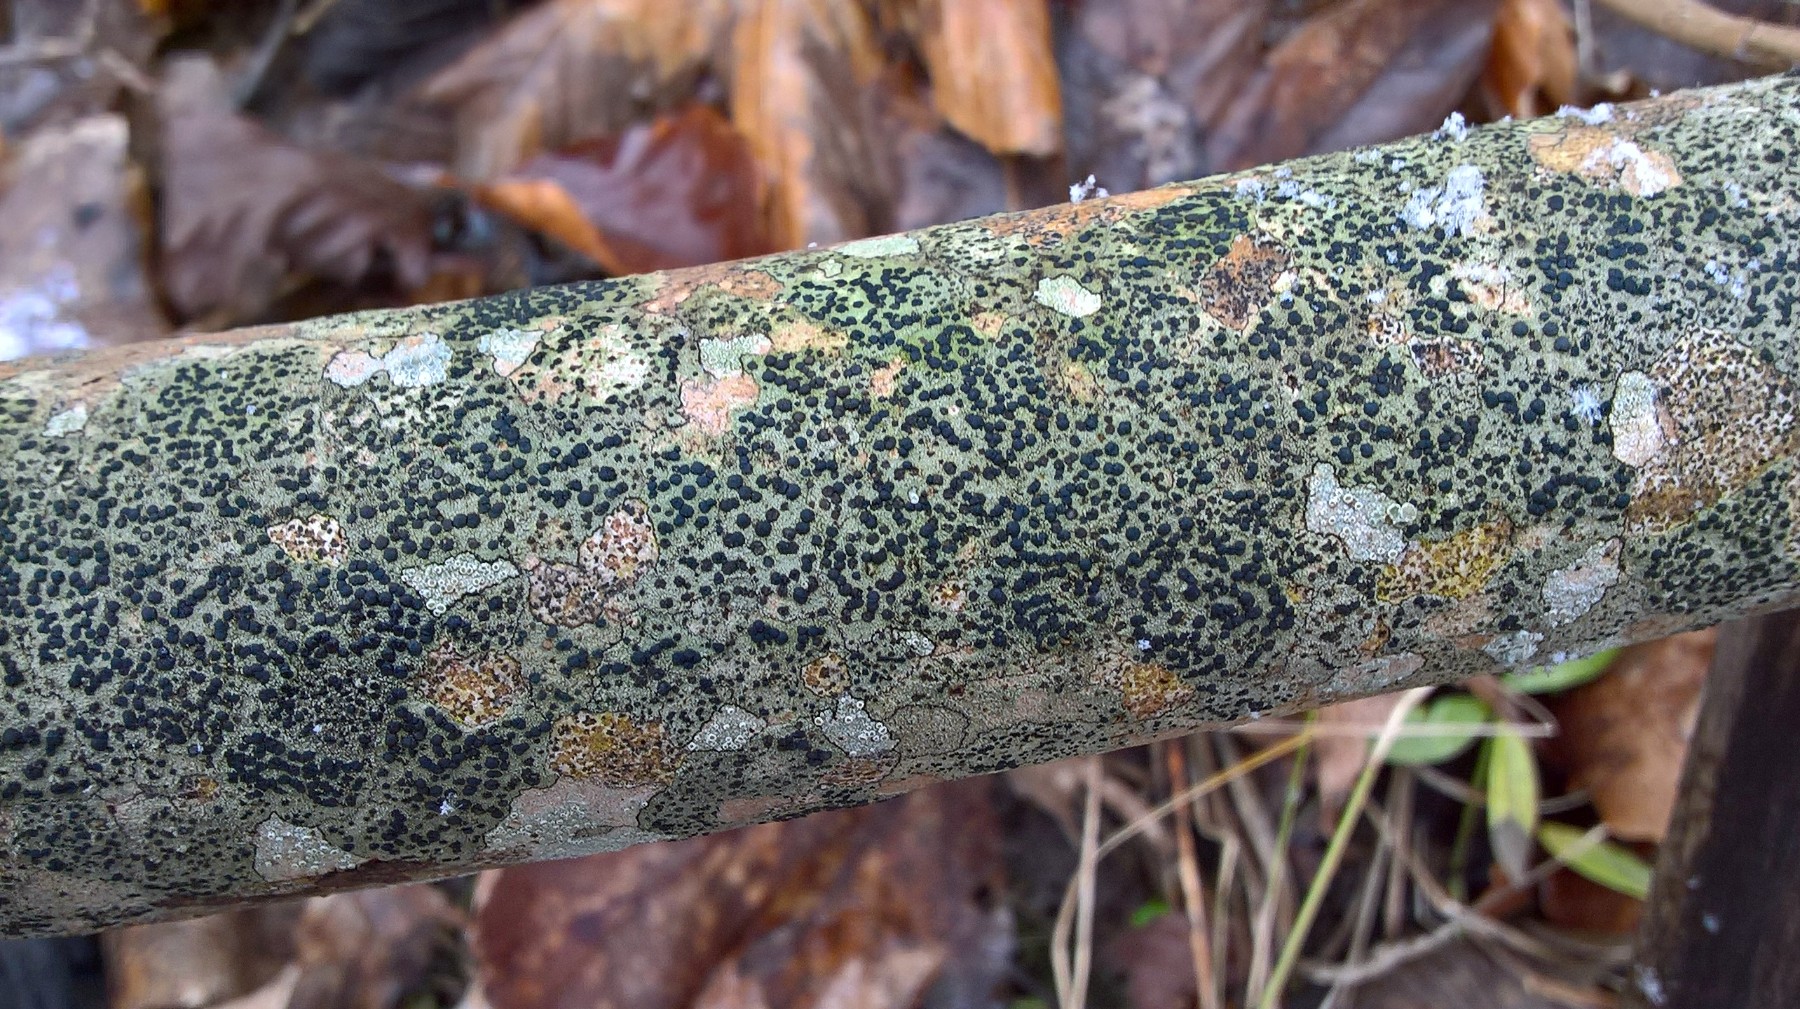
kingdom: Fungi
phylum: Ascomycota
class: Lecanoromycetes
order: Lecanorales
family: Lecanoraceae
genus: Lecidella
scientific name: Lecidella elaeochroma
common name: grågrøn skivelav
